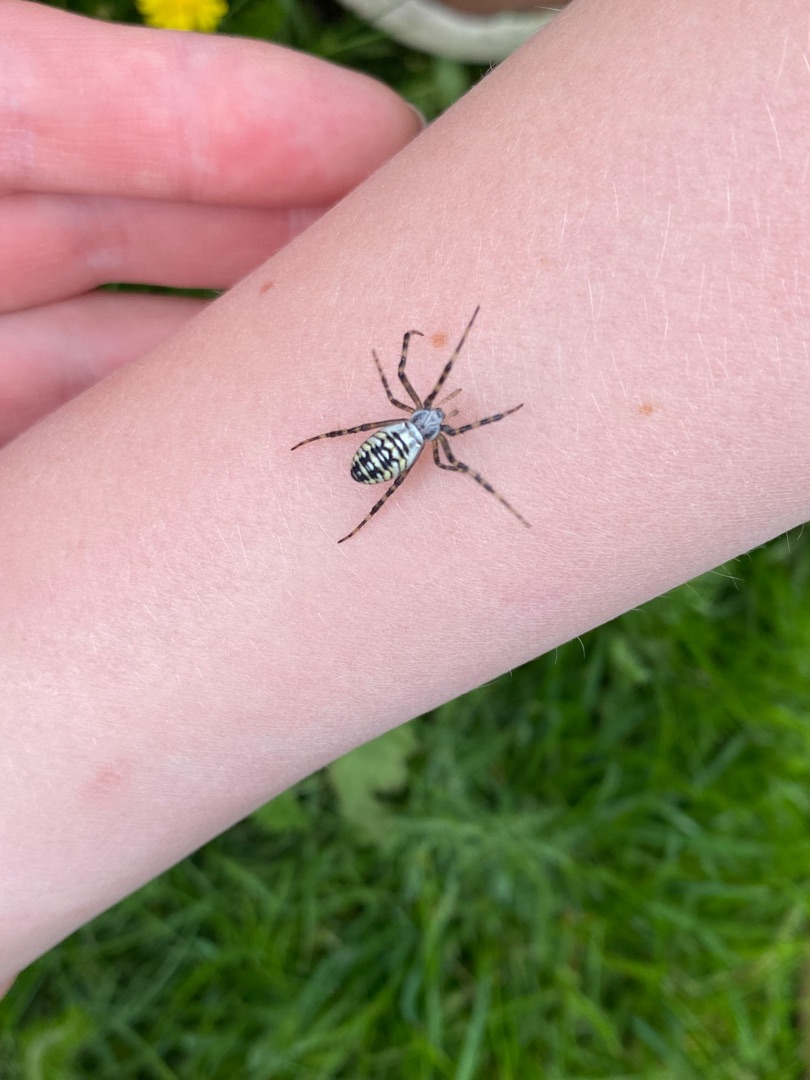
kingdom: Animalia
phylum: Arthropoda
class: Arachnida
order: Araneae
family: Araneidae
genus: Argiope
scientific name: Argiope bruennichi
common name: Hvepseedderkop
